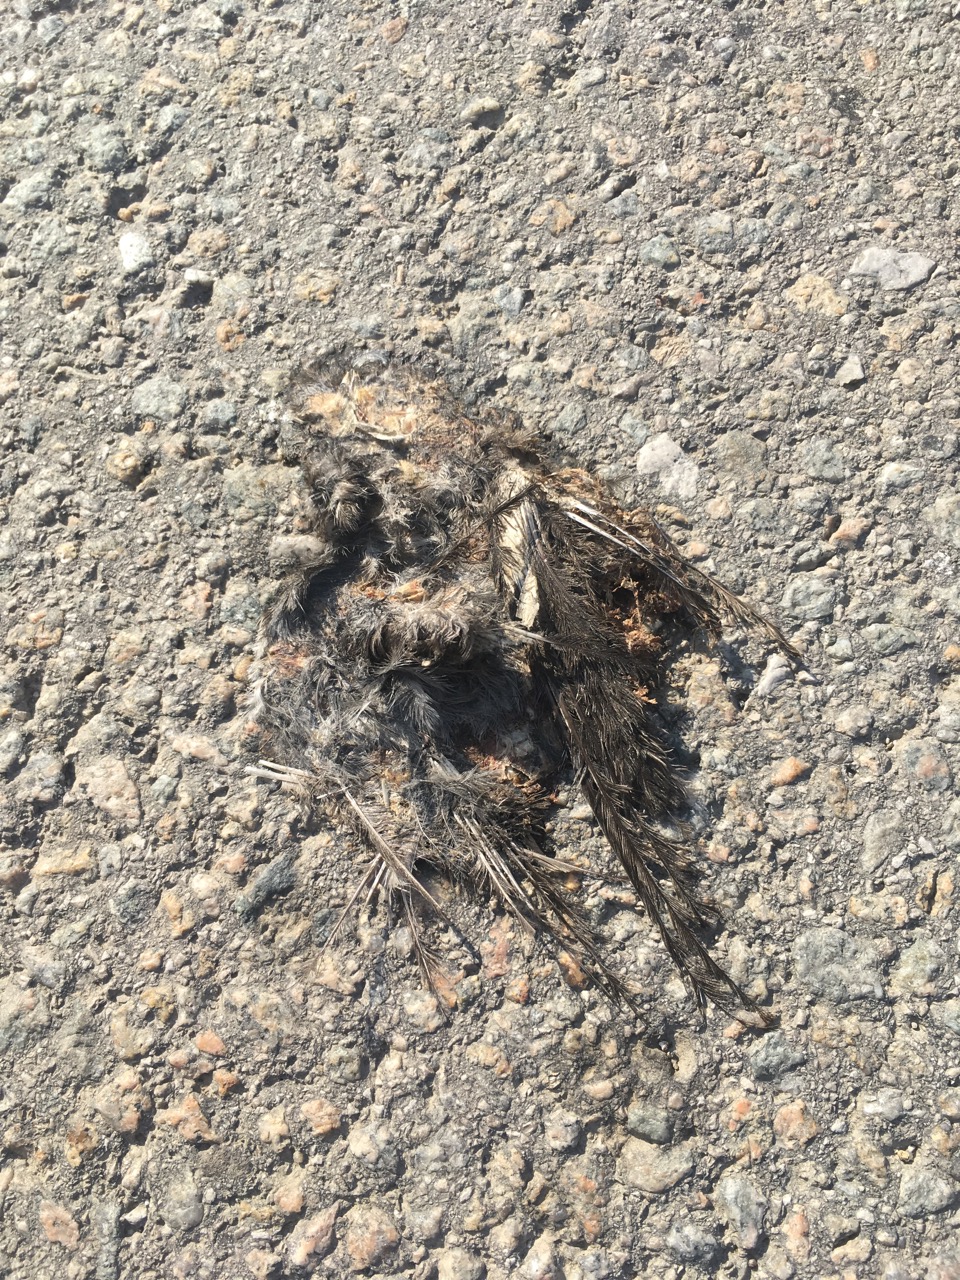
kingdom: Animalia
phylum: Chordata
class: Aves
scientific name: Aves
